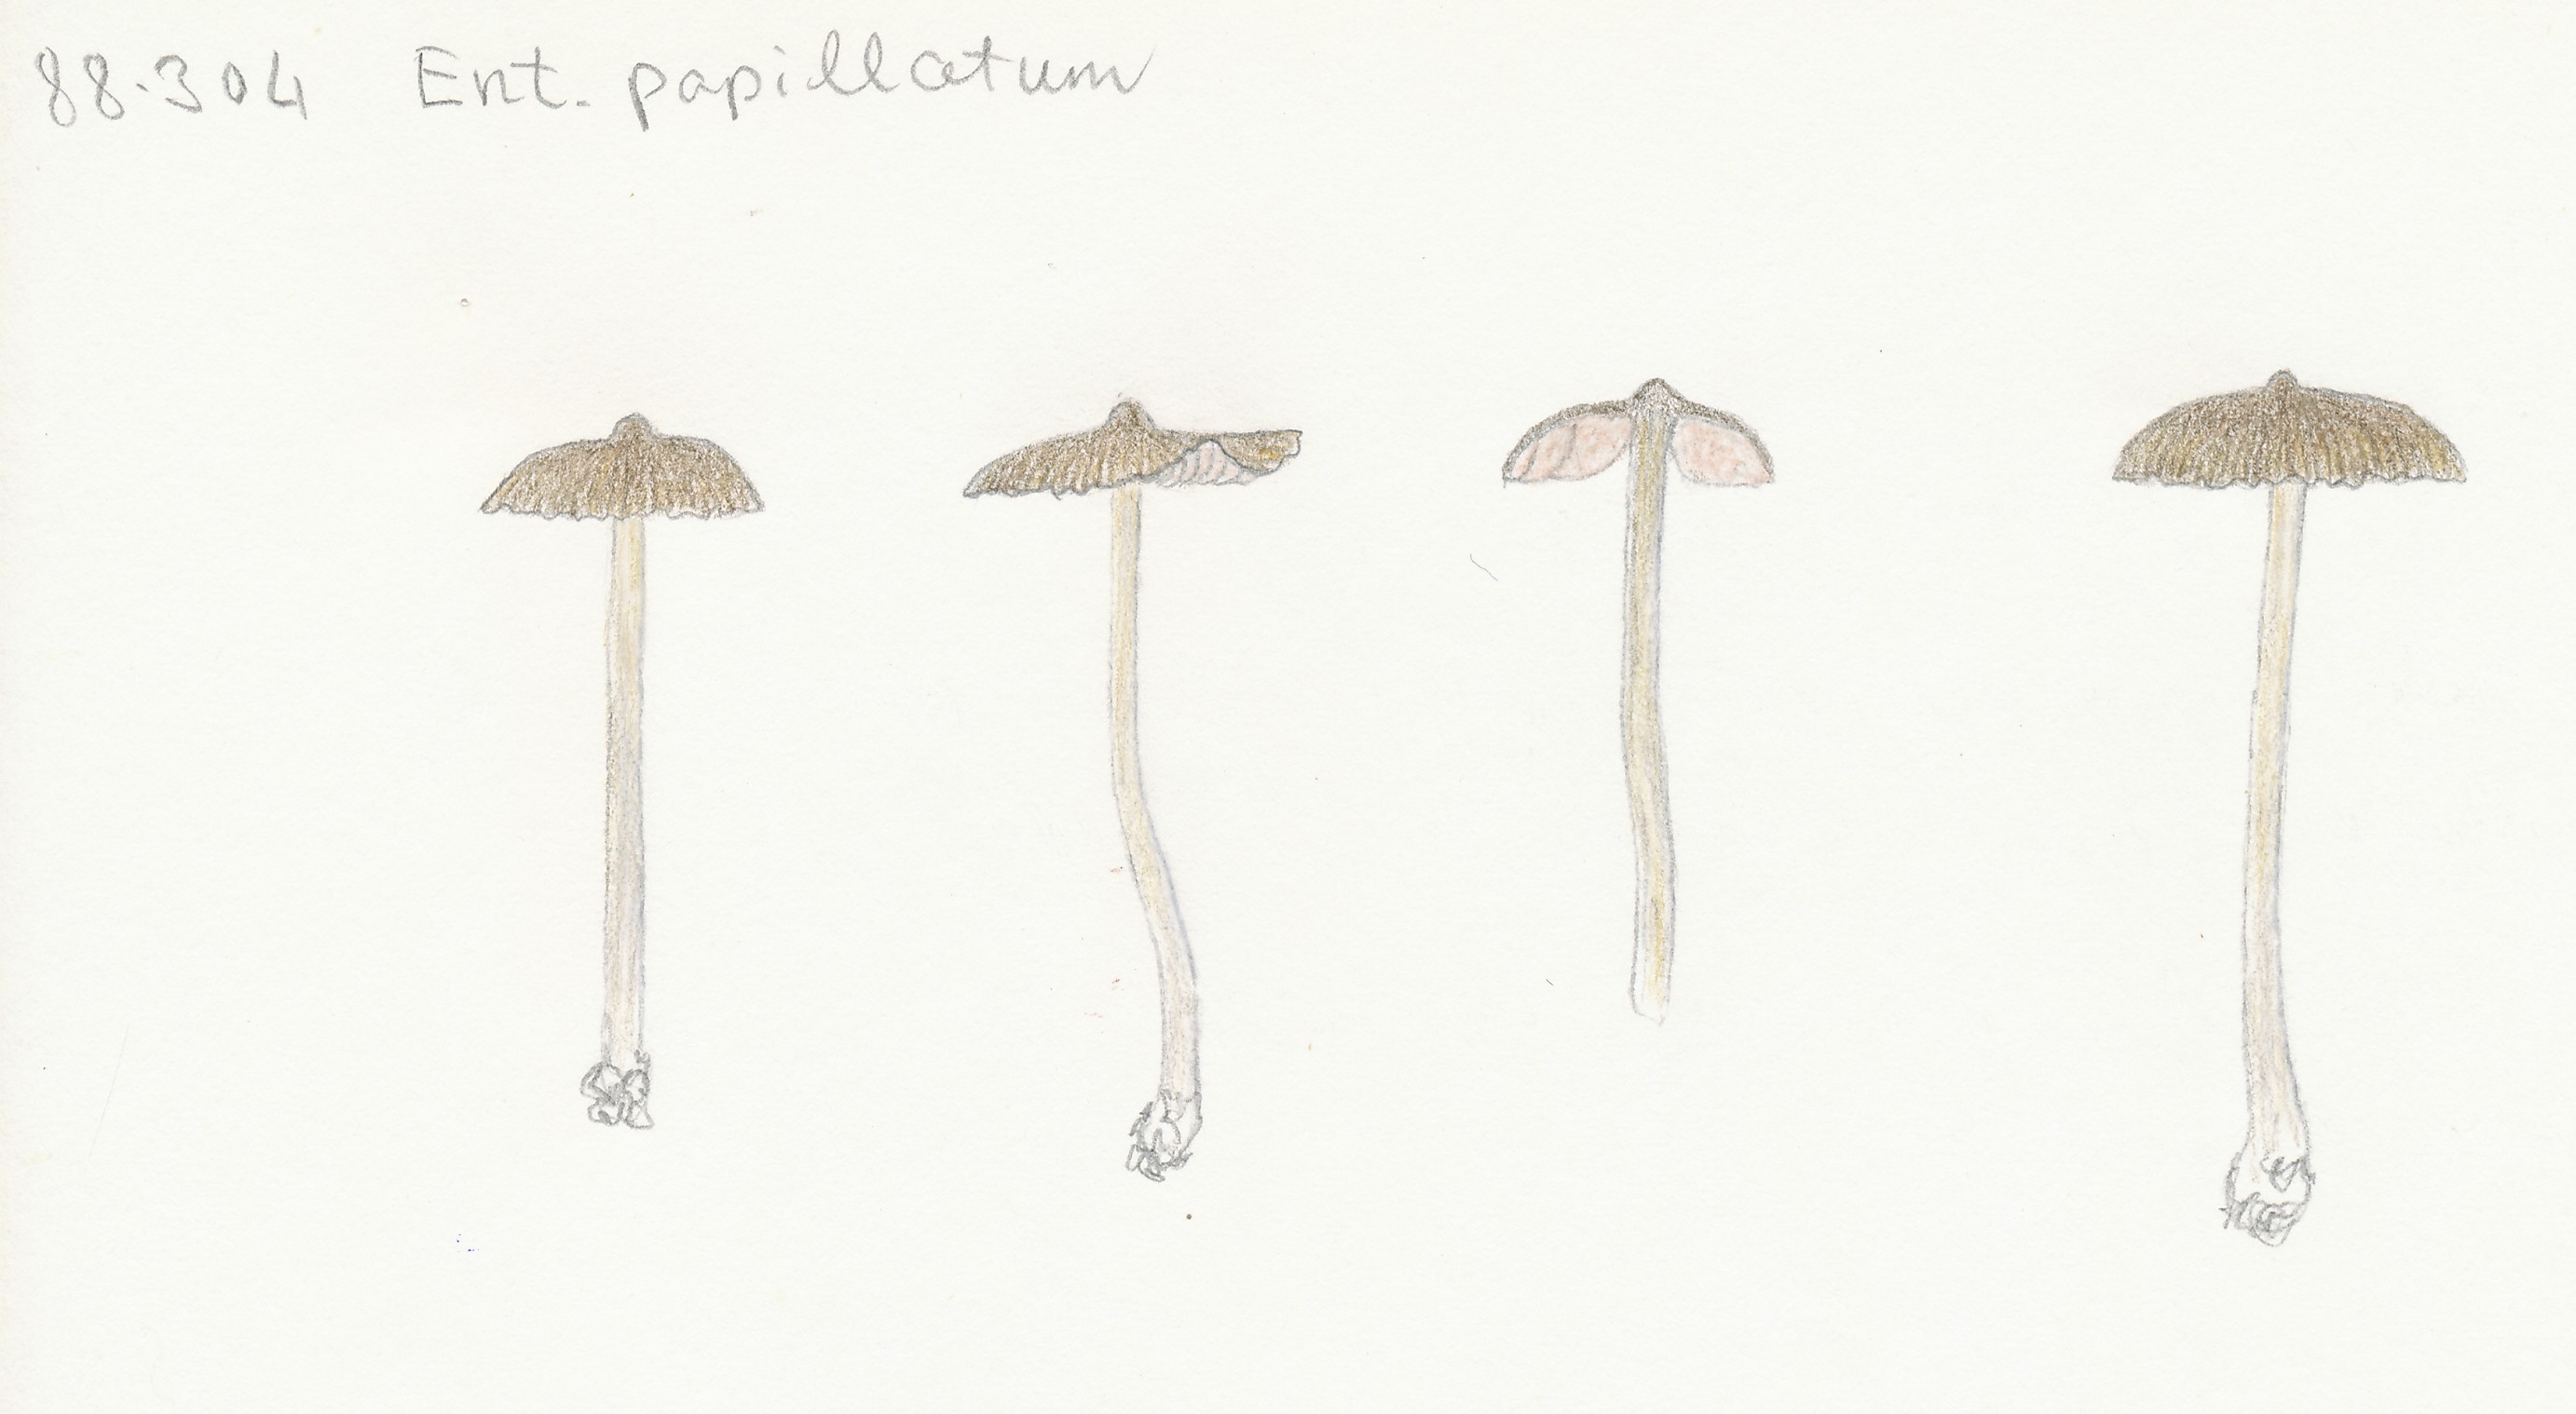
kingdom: Fungi
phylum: Basidiomycota
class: Agaricomycetes
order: Agaricales
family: Entolomataceae
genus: Entoloma
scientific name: Entoloma clandestinum
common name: tykbladet rødblad
